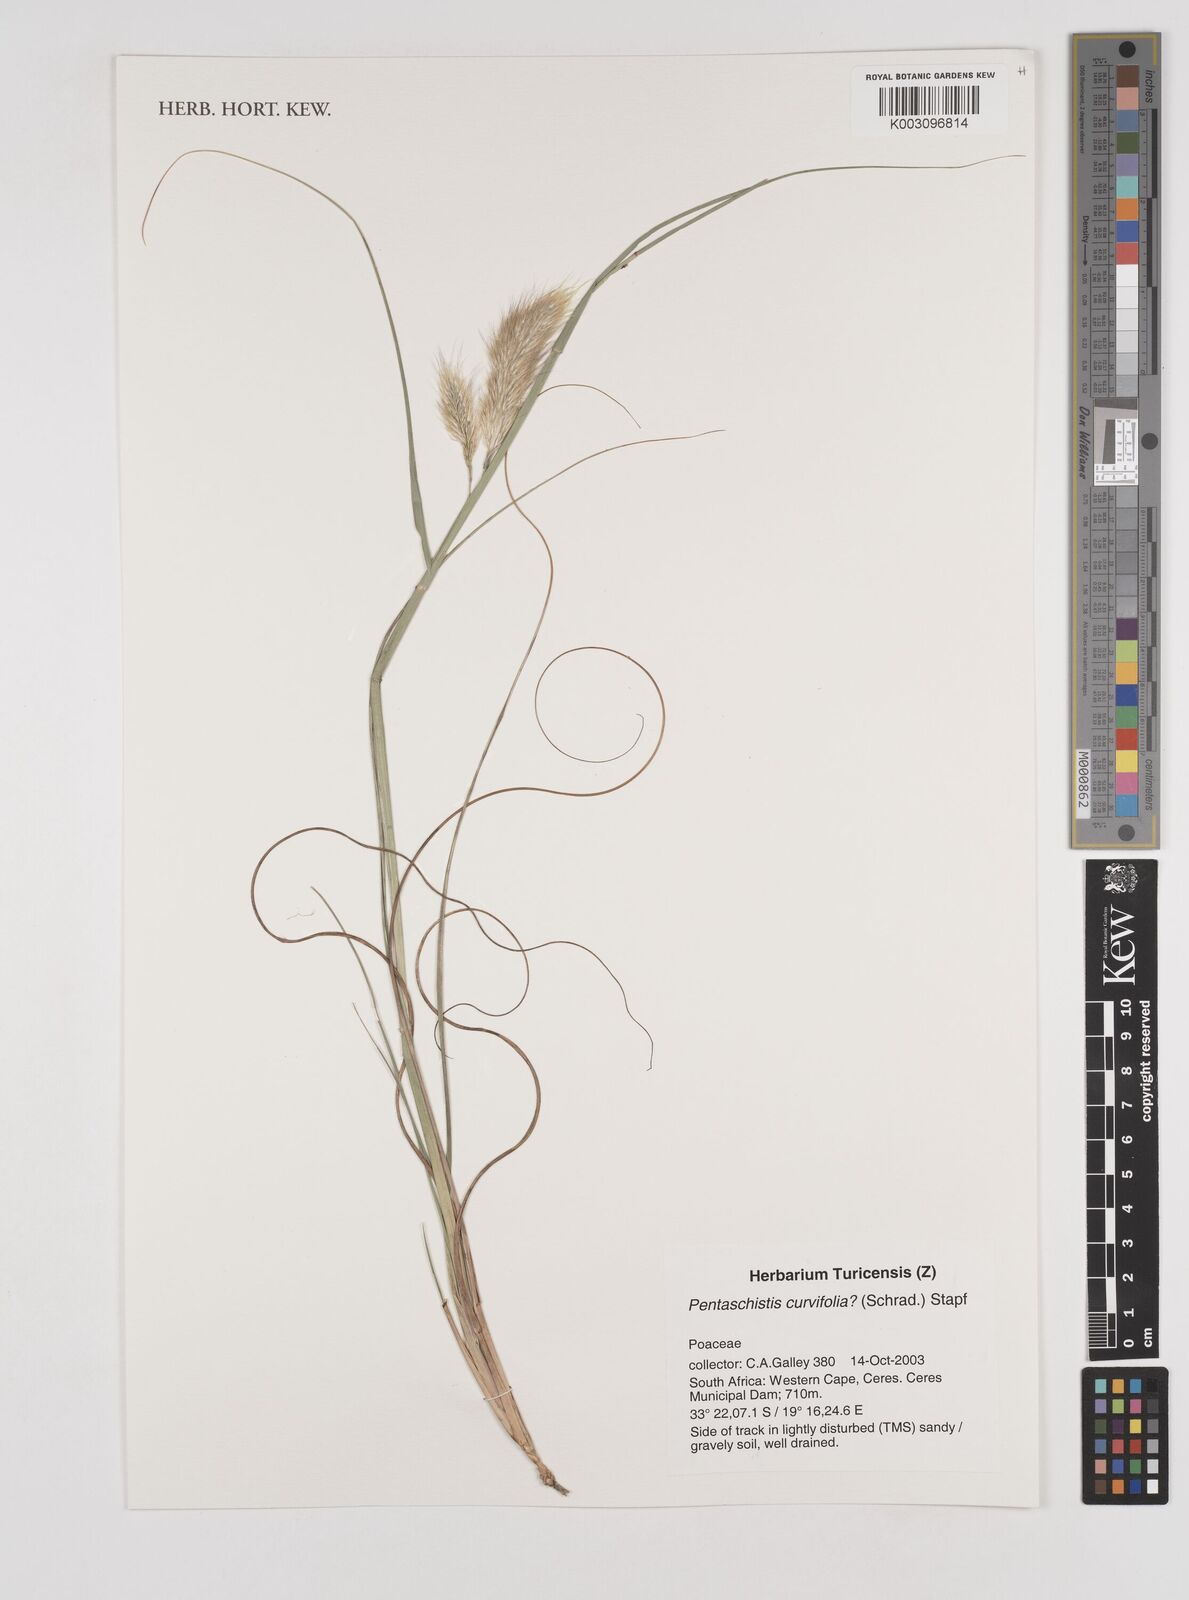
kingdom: Plantae
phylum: Tracheophyta
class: Liliopsida
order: Poales
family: Poaceae
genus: Pentameris
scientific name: Pentameris curvifolia
